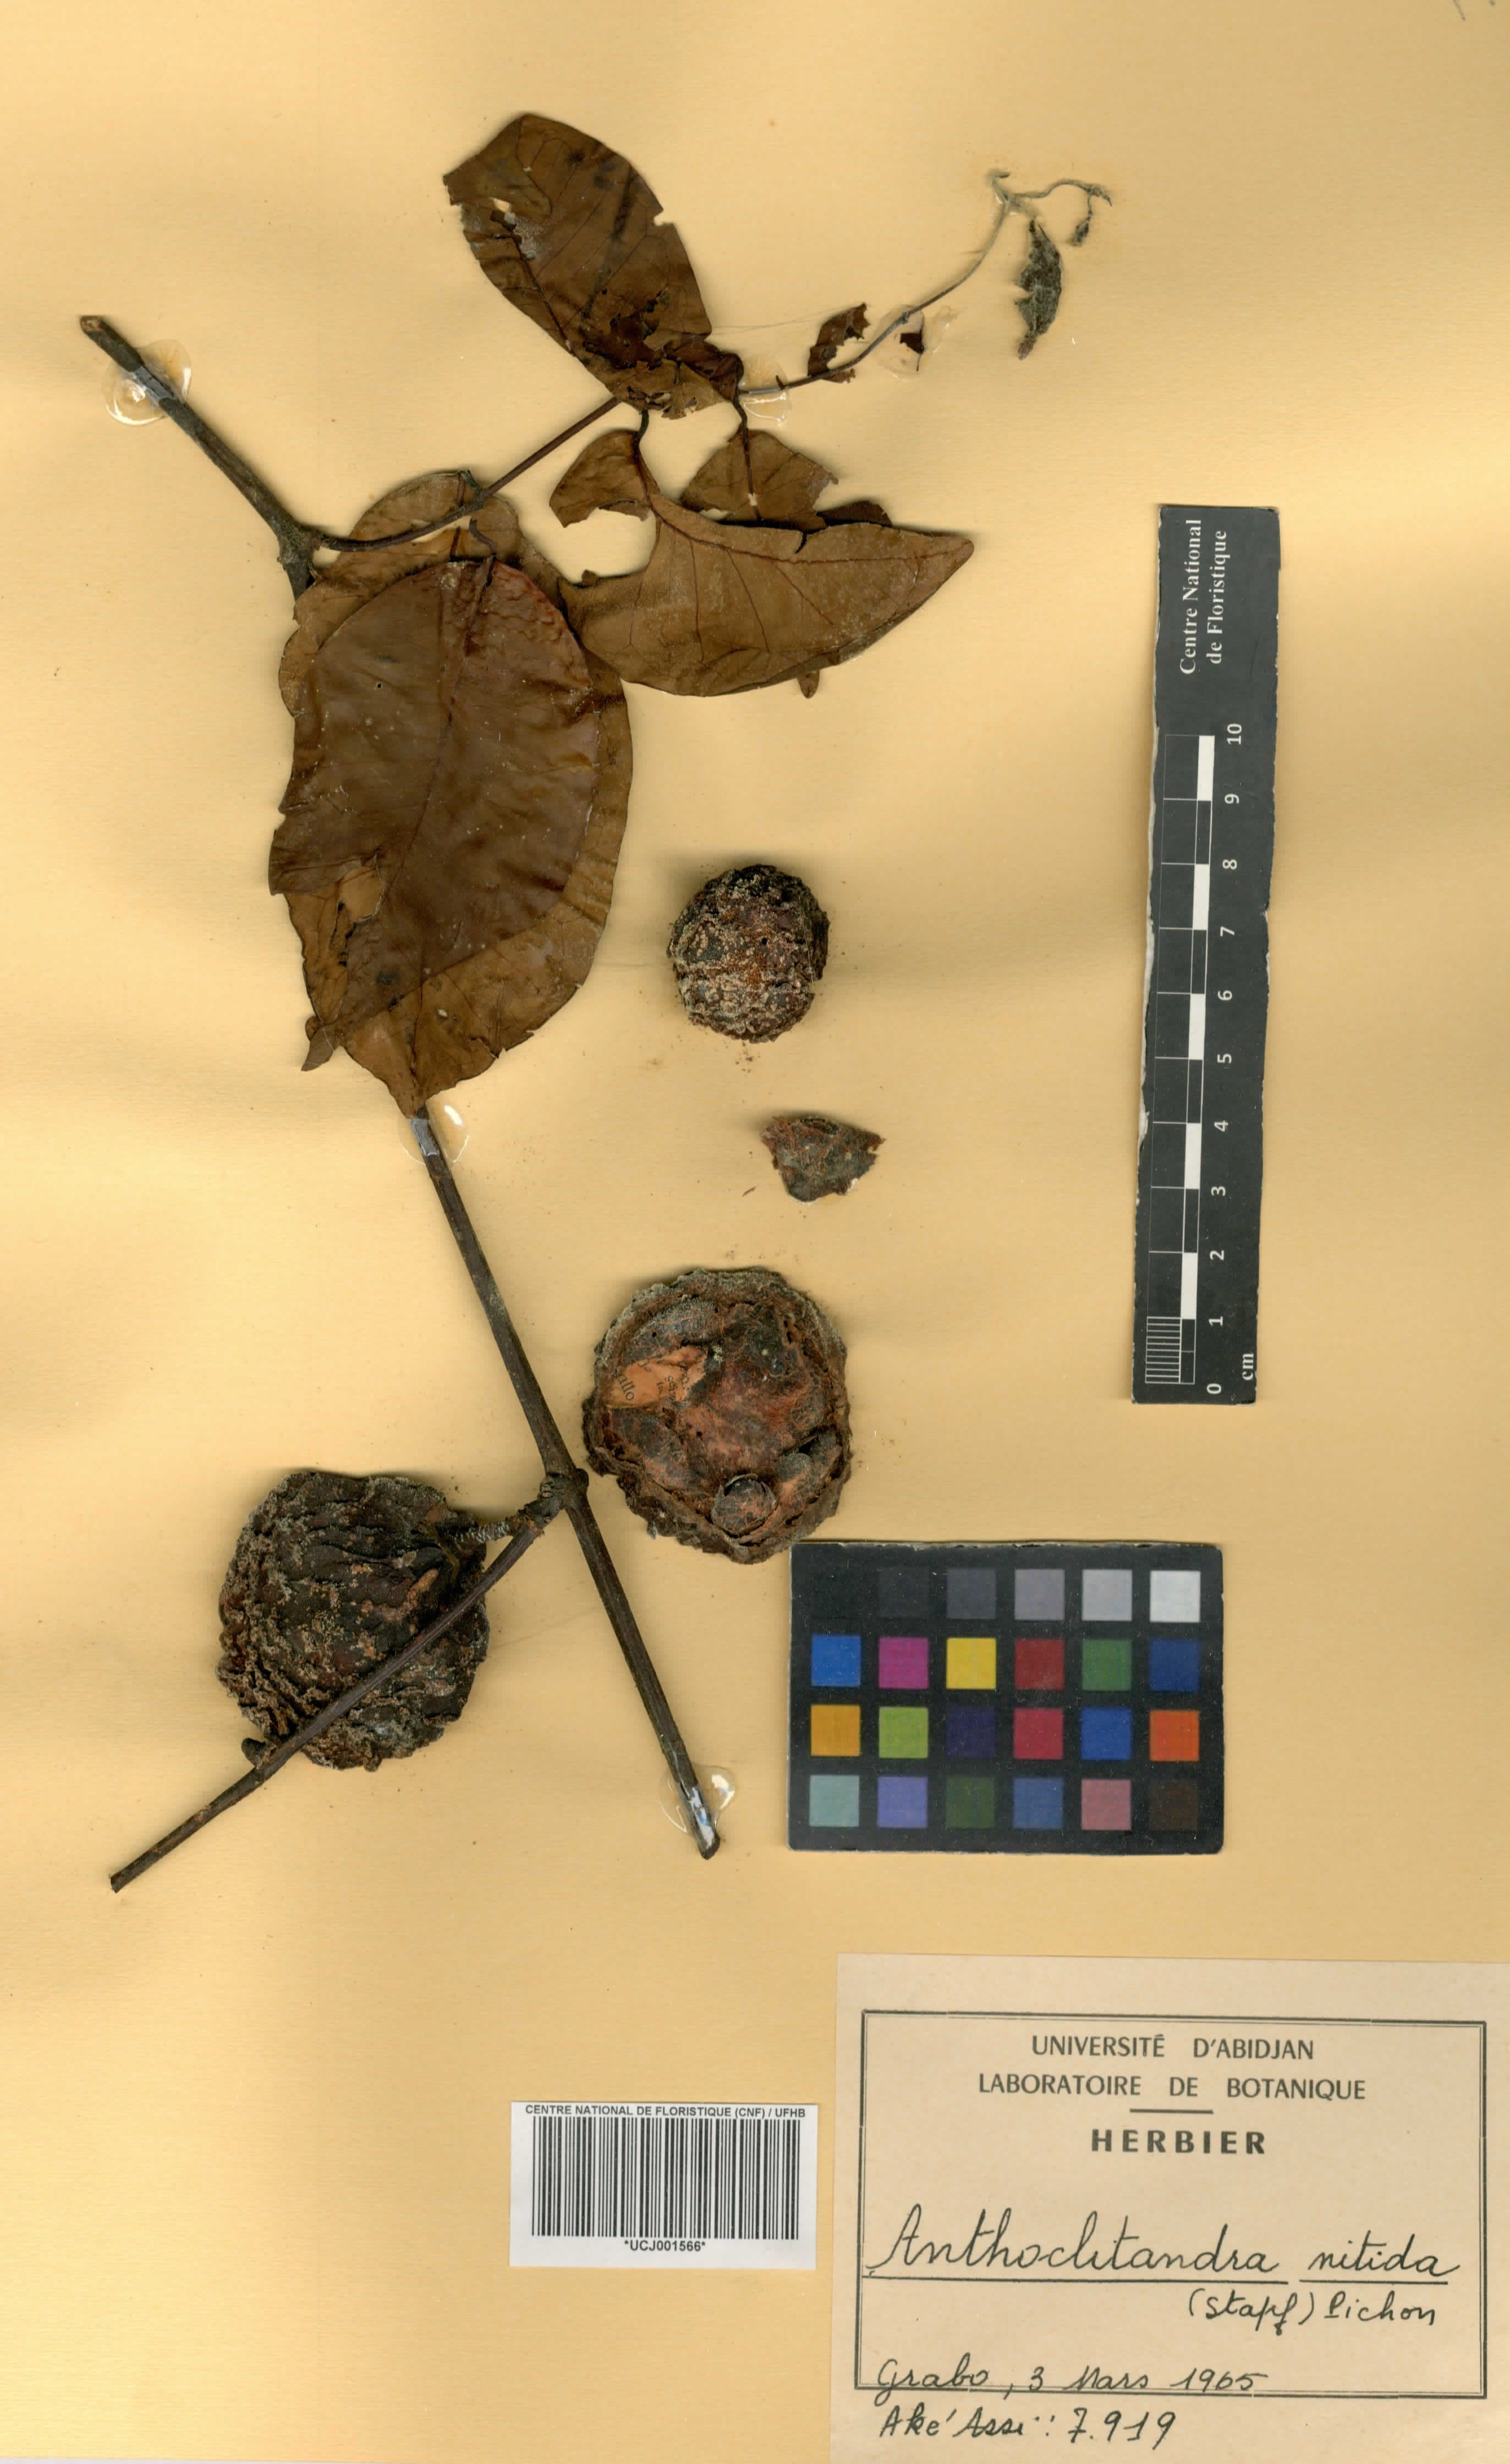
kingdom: Plantae
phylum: Tracheophyta
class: Magnoliopsida
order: Gentianales
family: Apocynaceae
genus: Landolphia
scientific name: Landolphia nitidula
